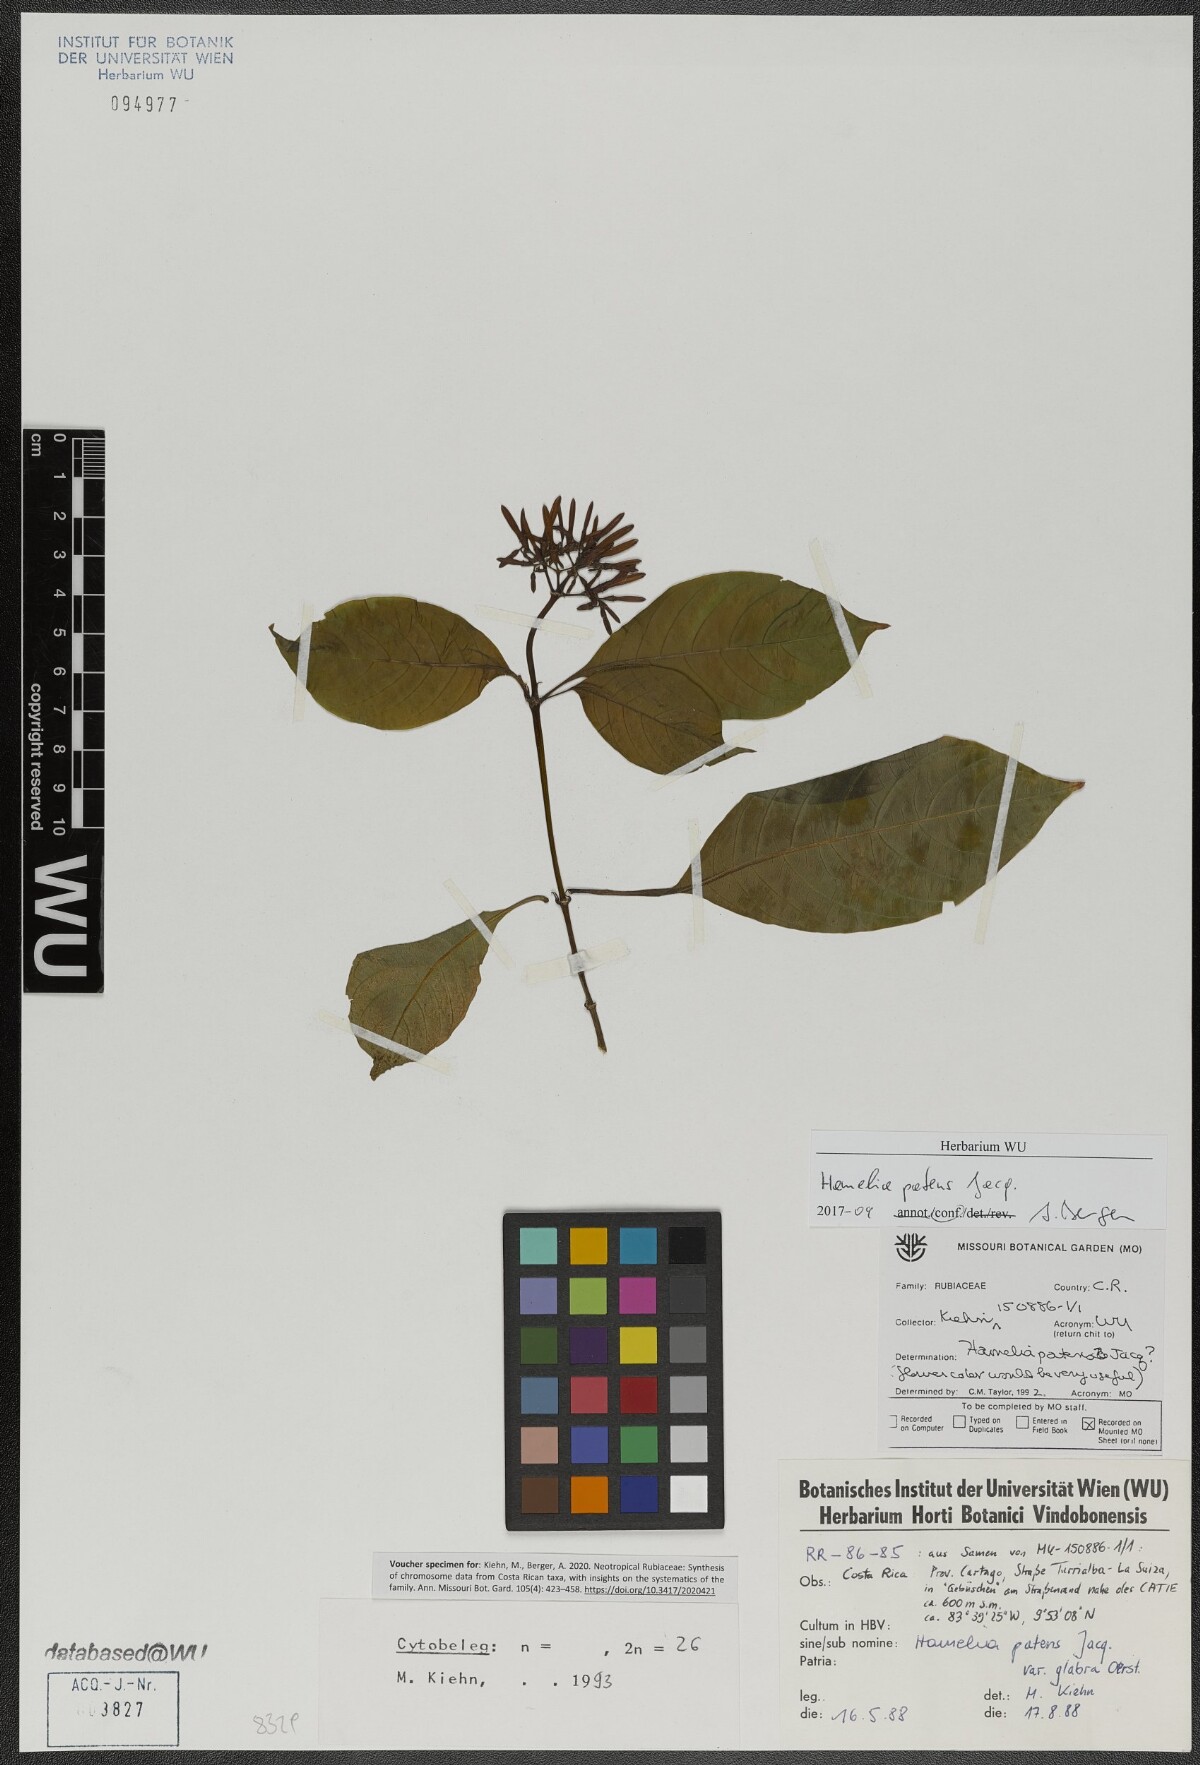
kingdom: Plantae
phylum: Tracheophyta
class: Magnoliopsida
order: Gentianales
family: Rubiaceae
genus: Hamelia
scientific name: Hamelia patens
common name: Redhead
